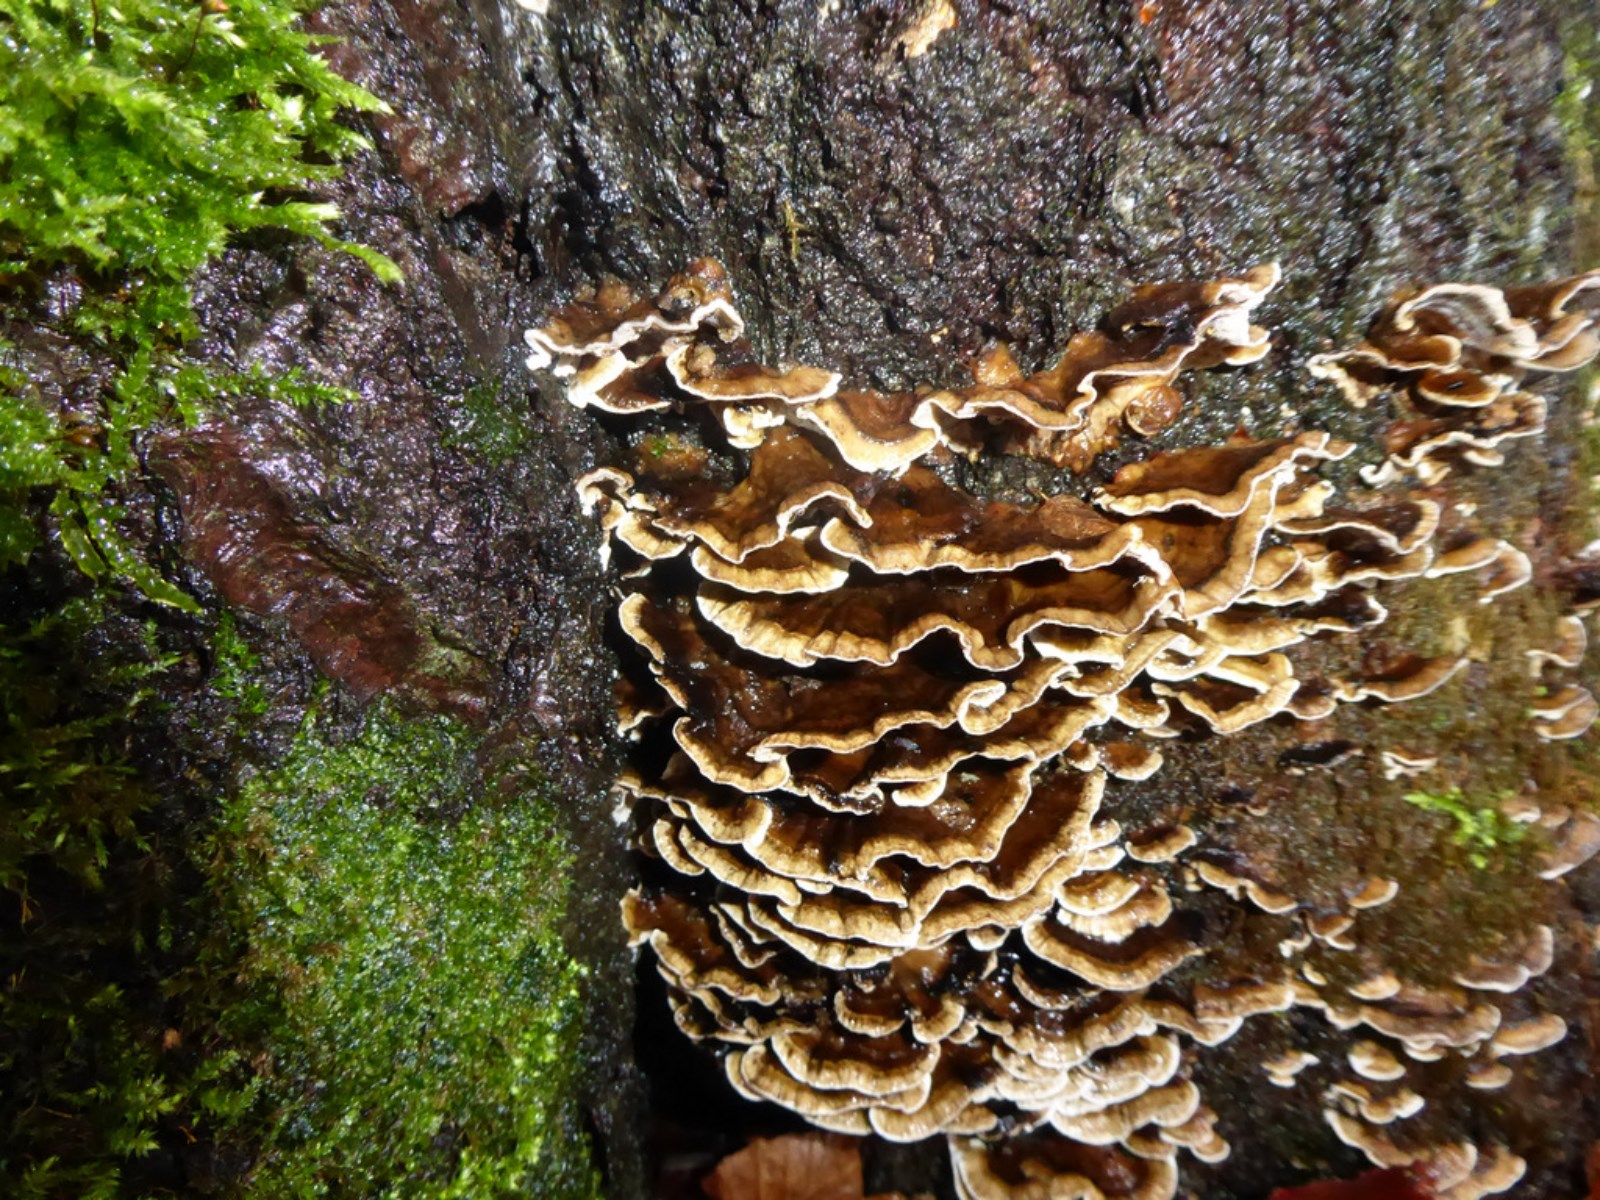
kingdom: Fungi
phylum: Basidiomycota
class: Agaricomycetes
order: Polyporales
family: Phanerochaetaceae
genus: Bjerkandera
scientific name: Bjerkandera adusta
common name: sveden sodporesvamp
